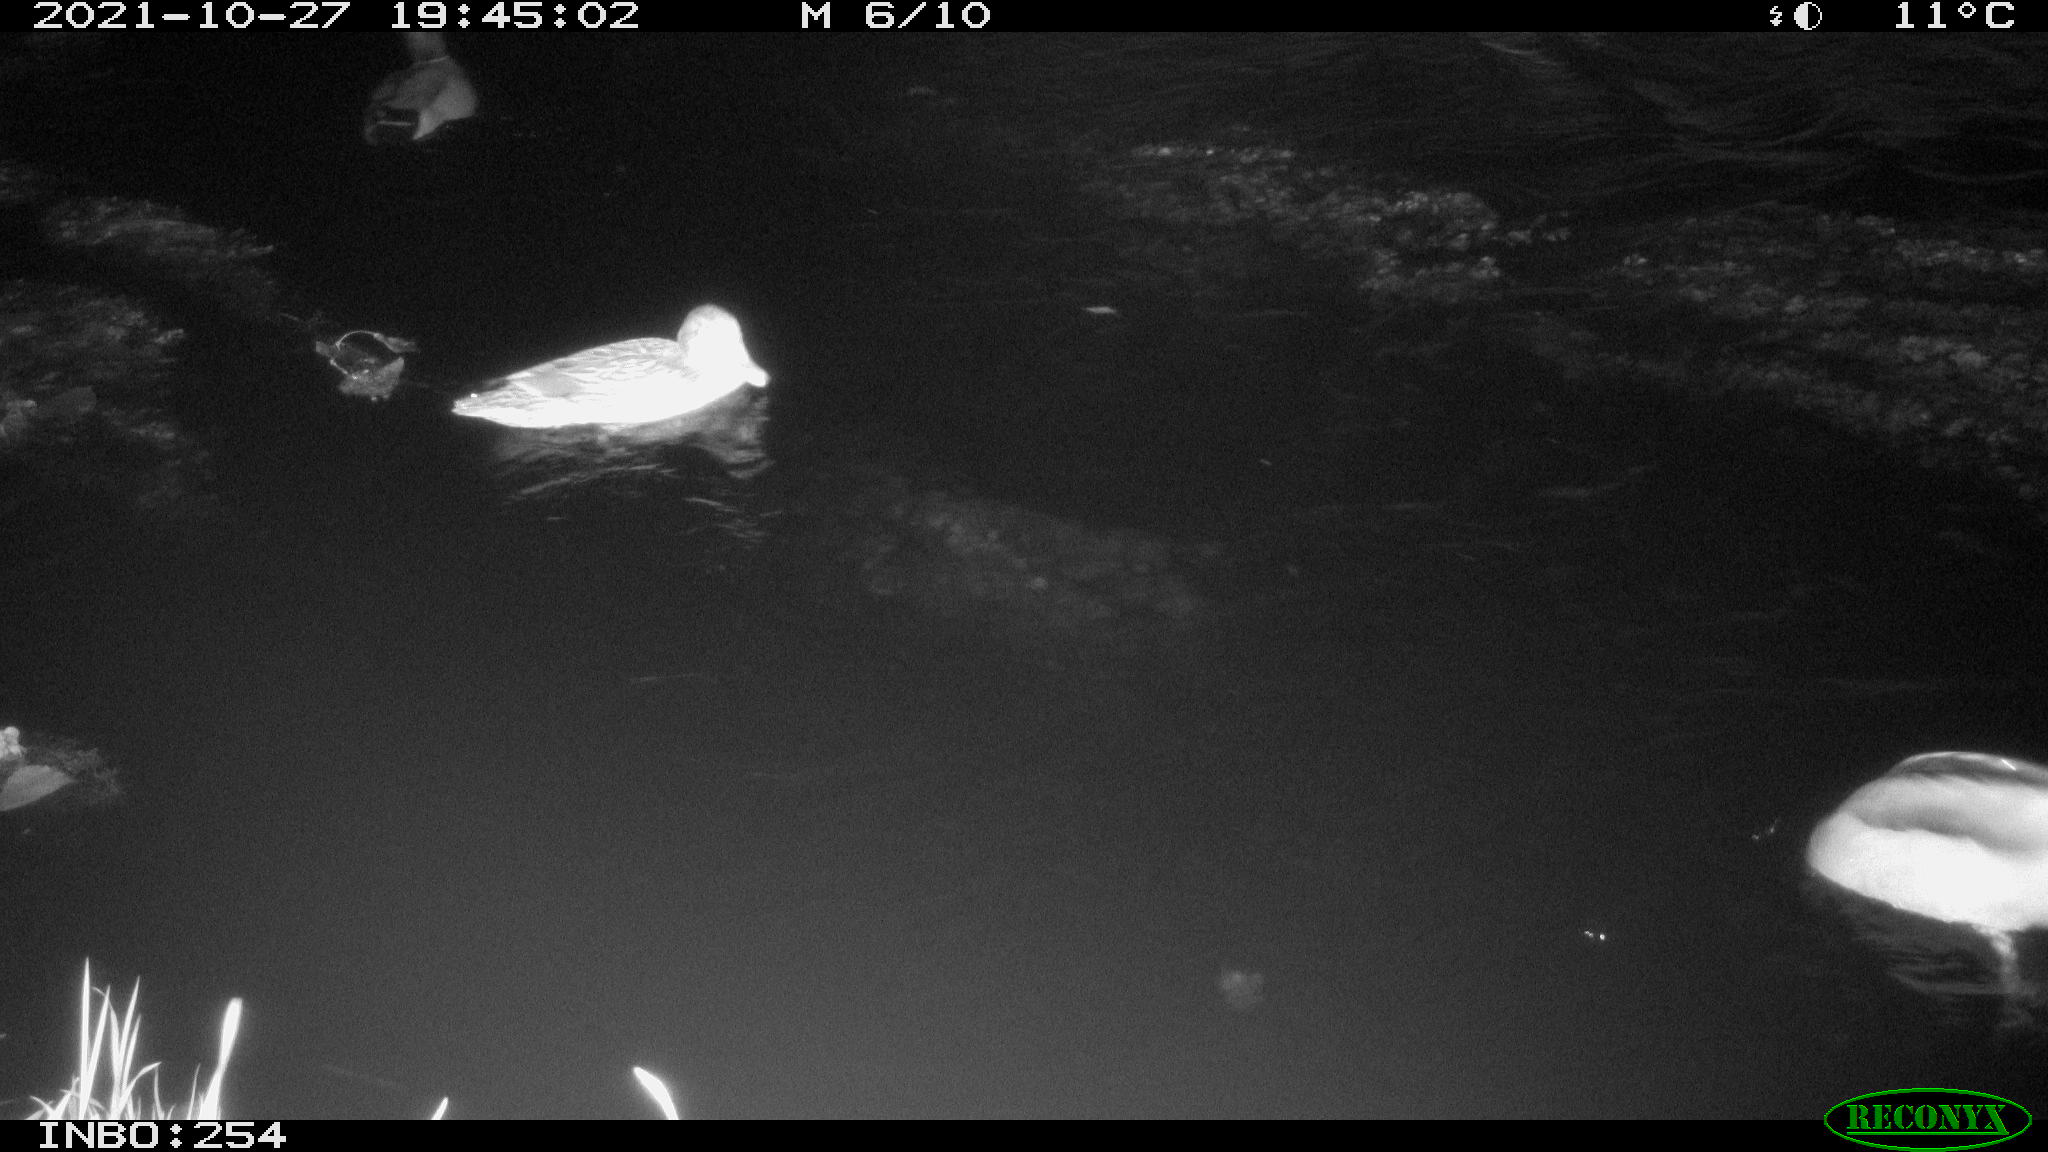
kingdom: Animalia
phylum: Chordata
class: Aves
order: Anseriformes
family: Anatidae
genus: Anas
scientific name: Anas platyrhynchos
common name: Mallard
